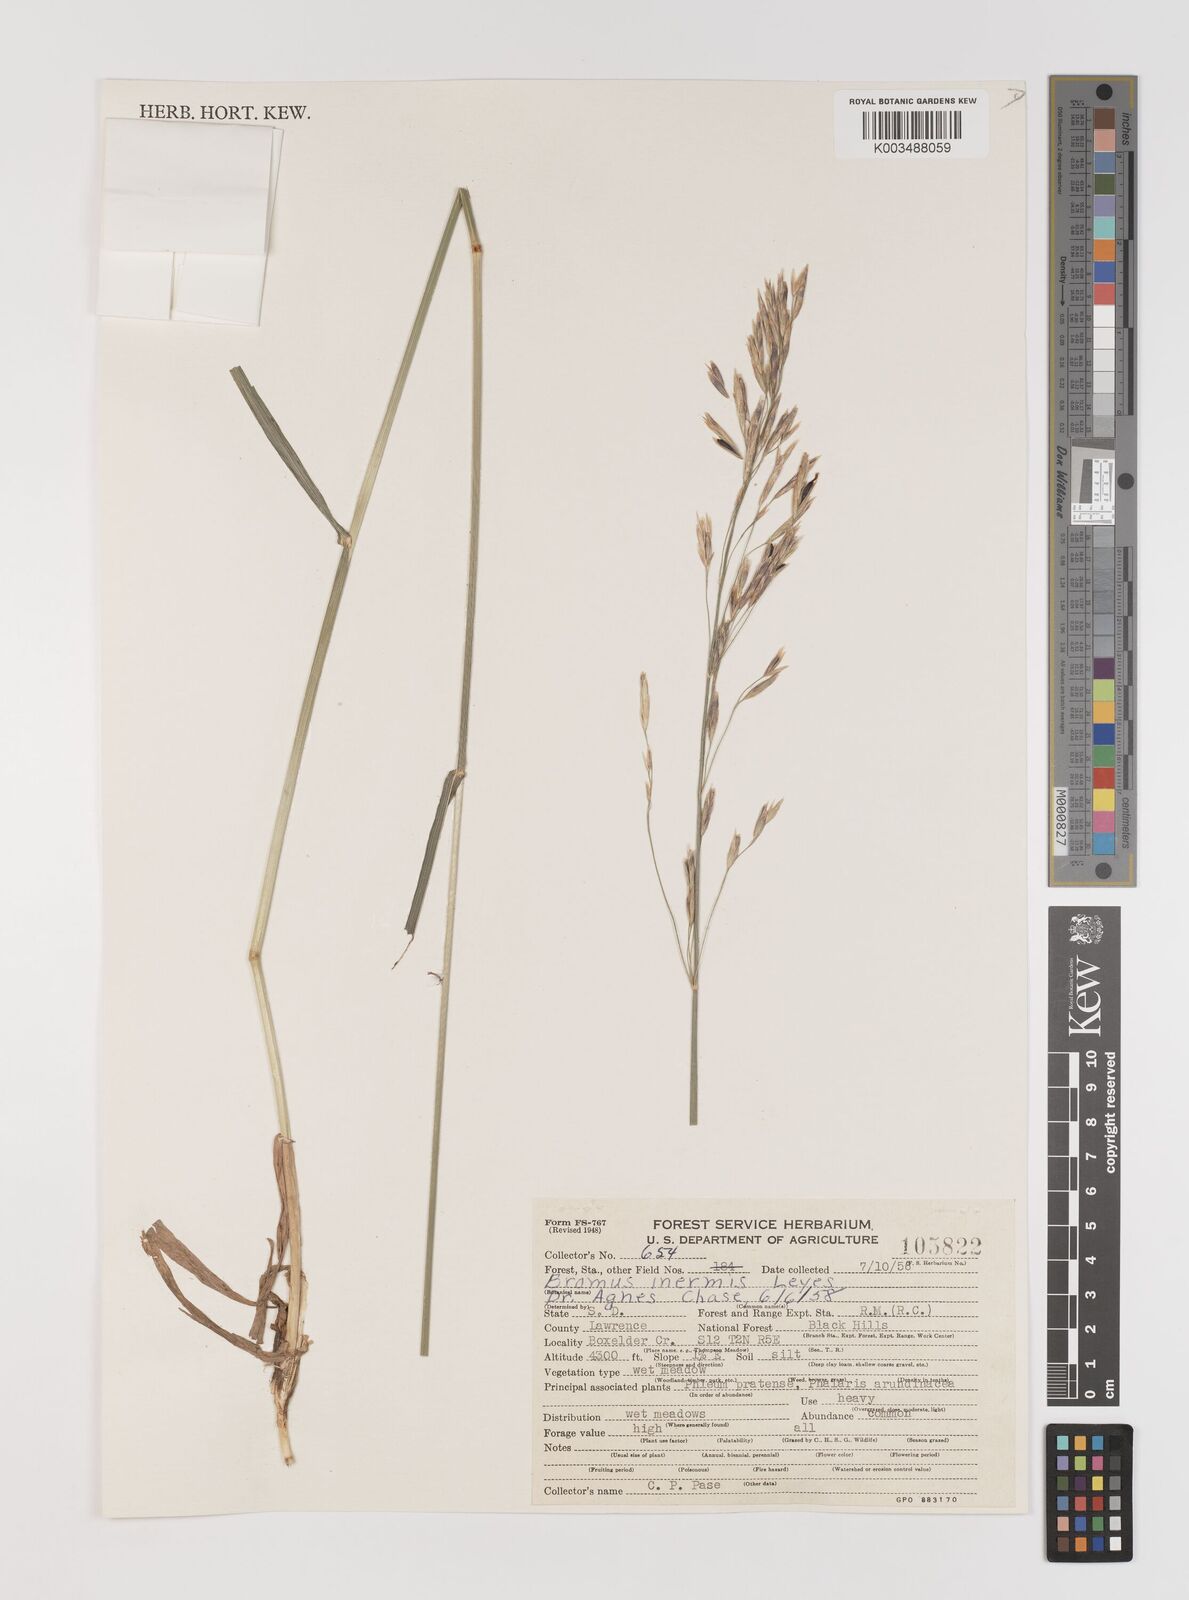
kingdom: Plantae
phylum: Tracheophyta
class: Liliopsida
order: Poales
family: Poaceae
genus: Bromus
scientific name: Bromus inermis
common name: Smooth brome
